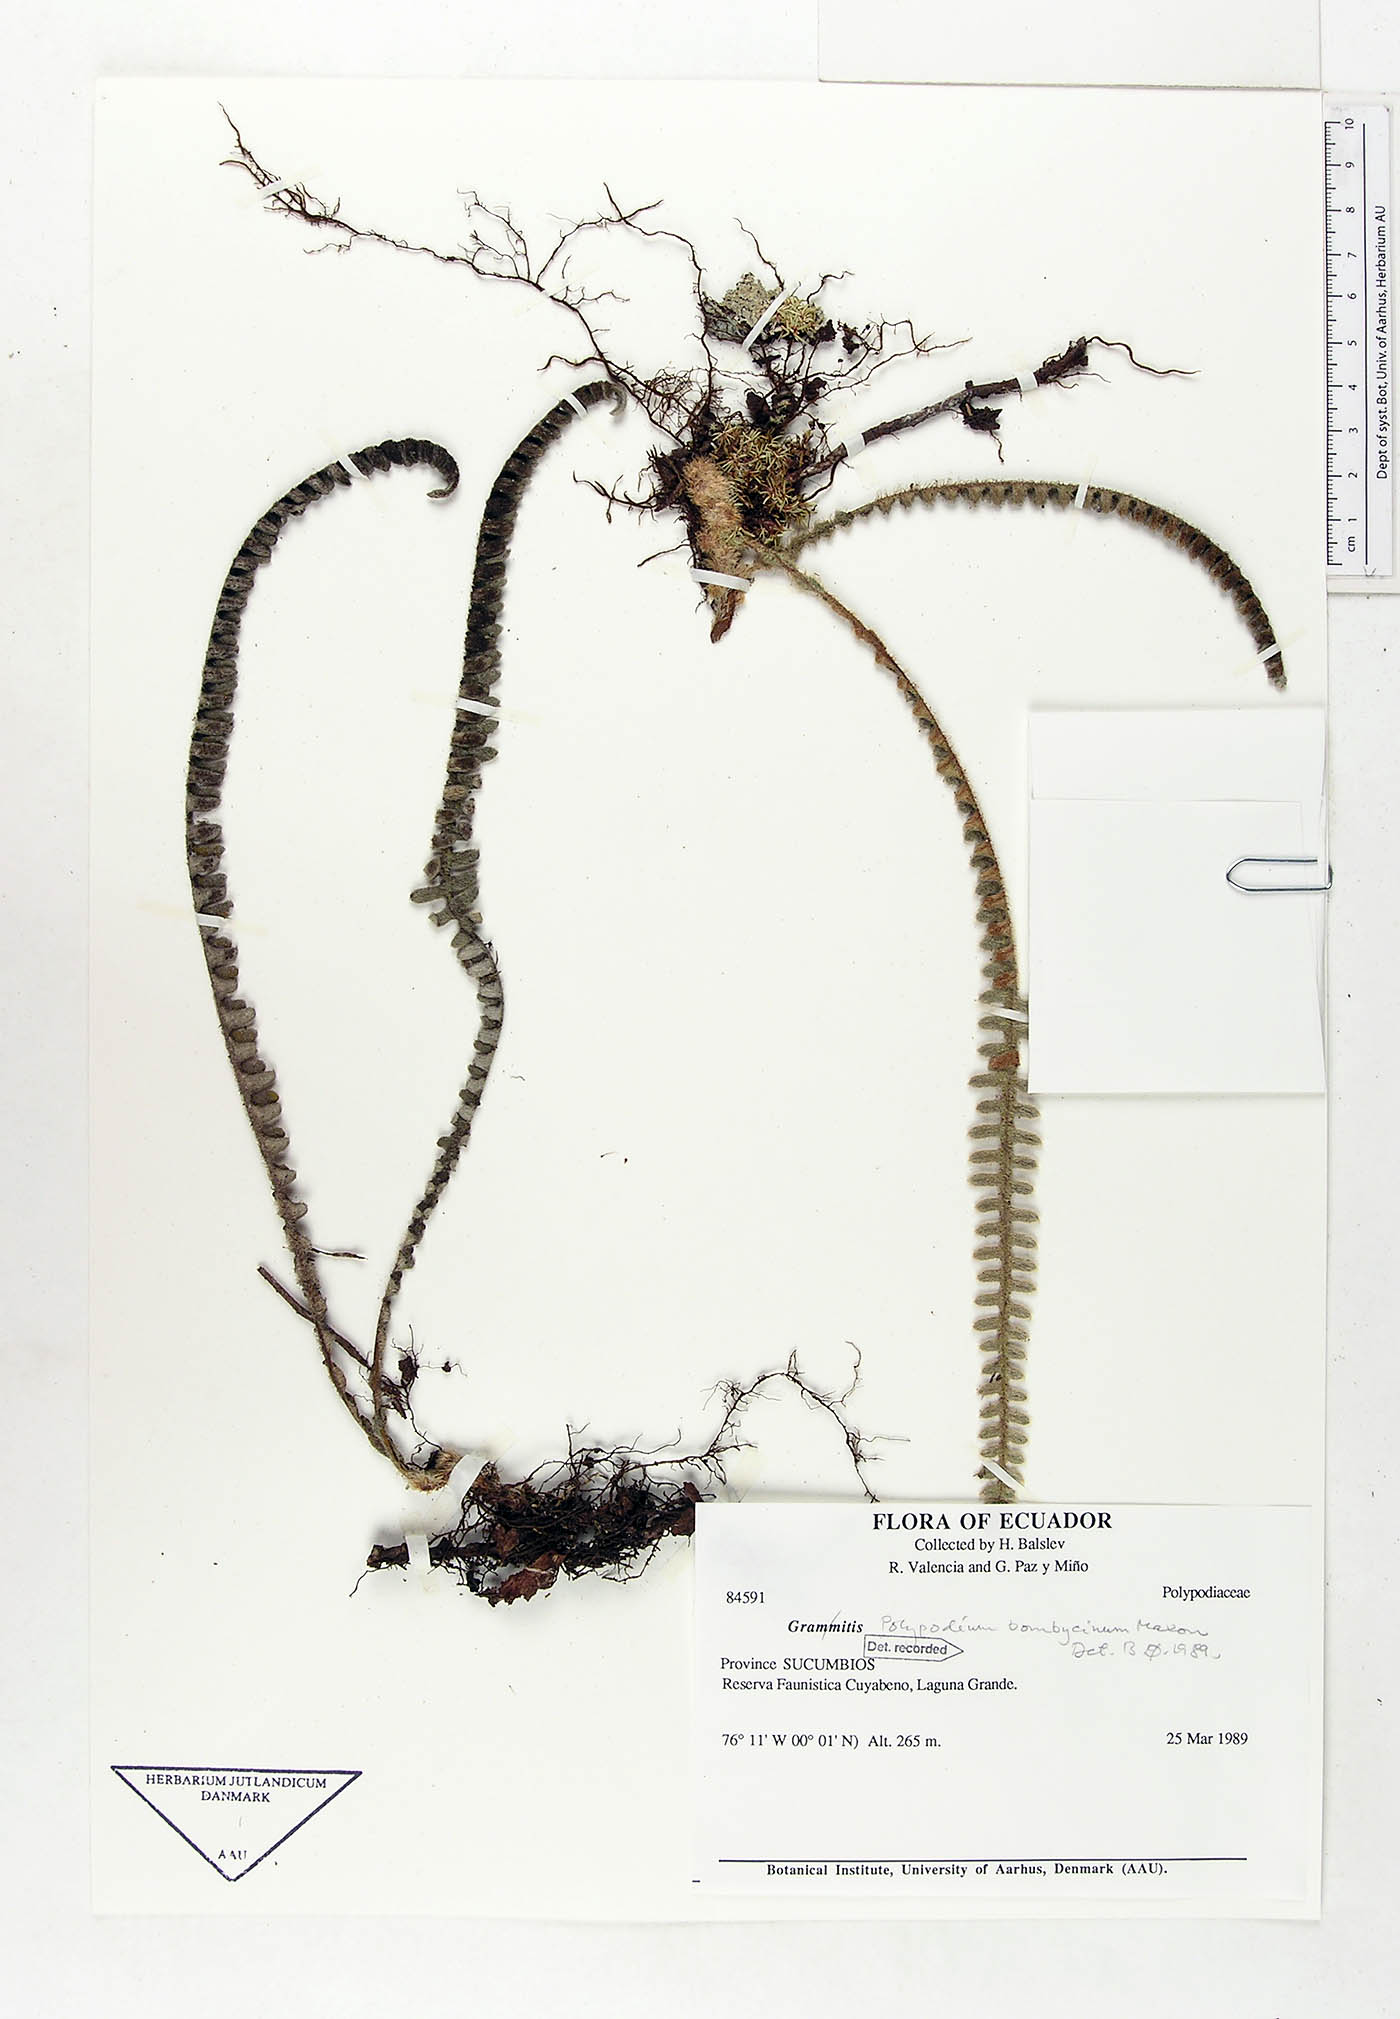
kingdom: Plantae
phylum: Tracheophyta
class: Polypodiopsida
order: Polypodiales
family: Polypodiaceae
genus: Pleopeltis
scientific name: Pleopeltis bombycina
